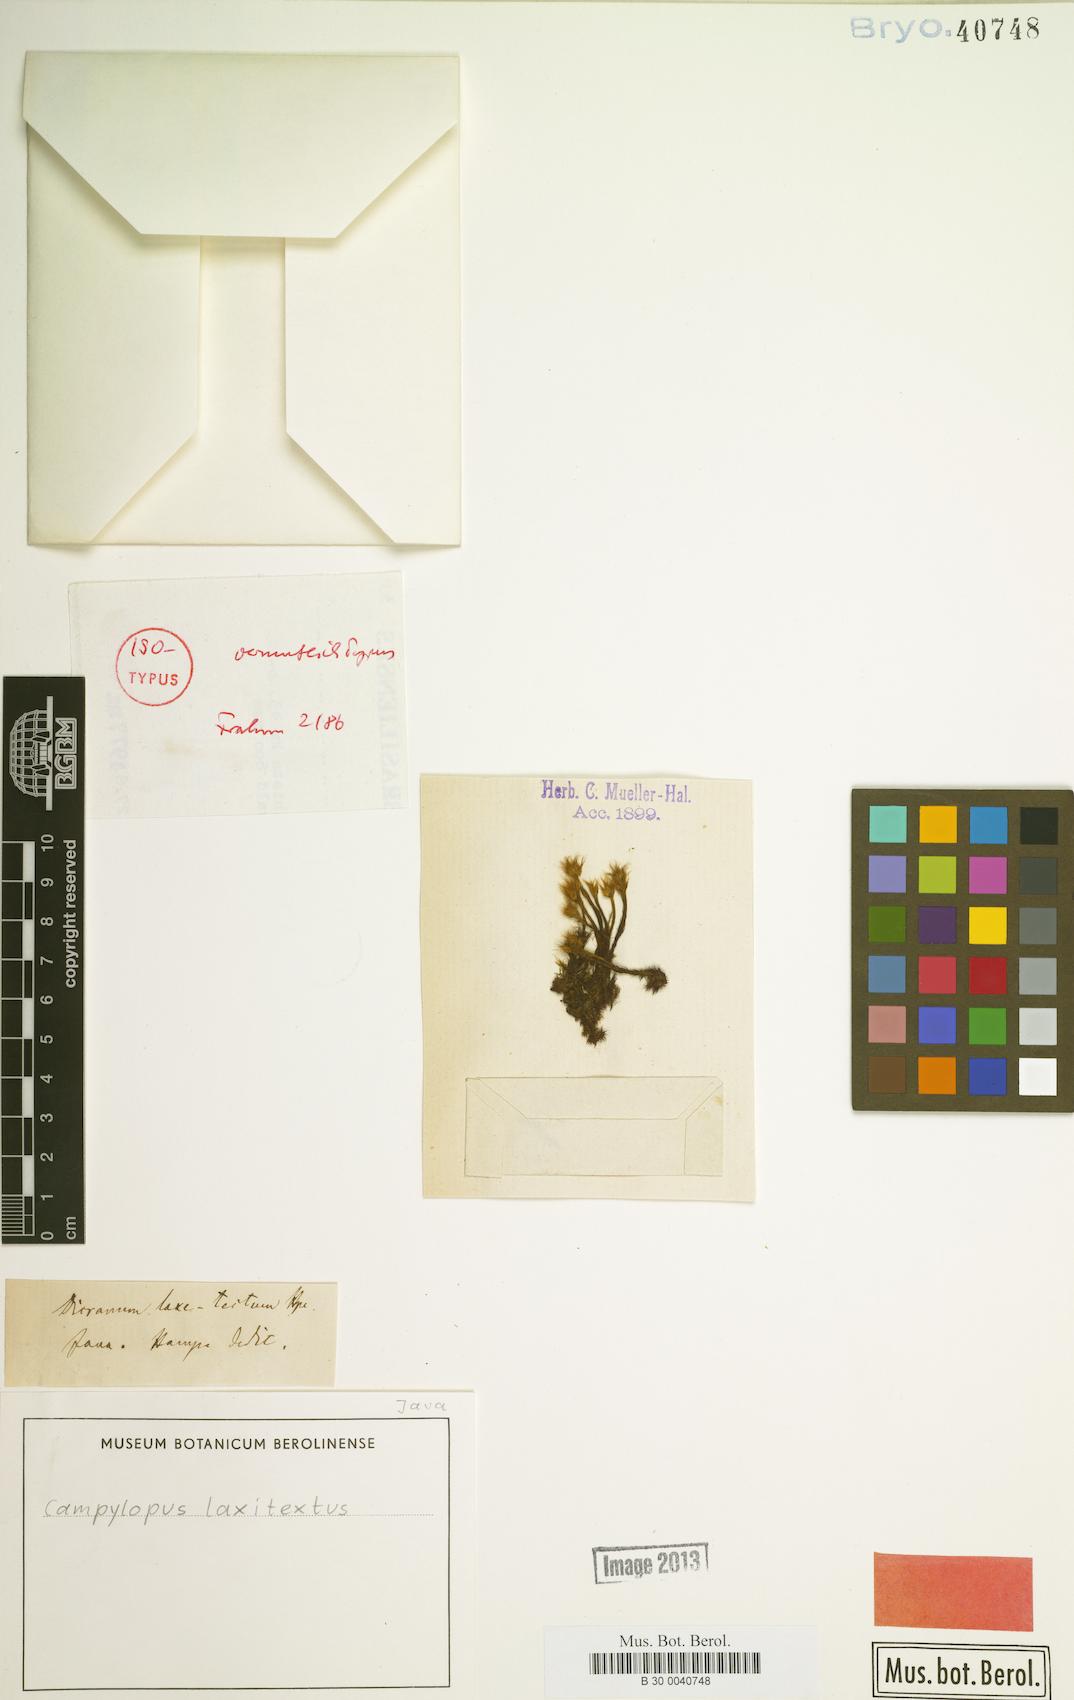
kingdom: Plantae
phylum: Bryophyta
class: Bryopsida
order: Dicranales
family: Leucobryaceae
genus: Campylopus
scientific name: Campylopus laxitextus
